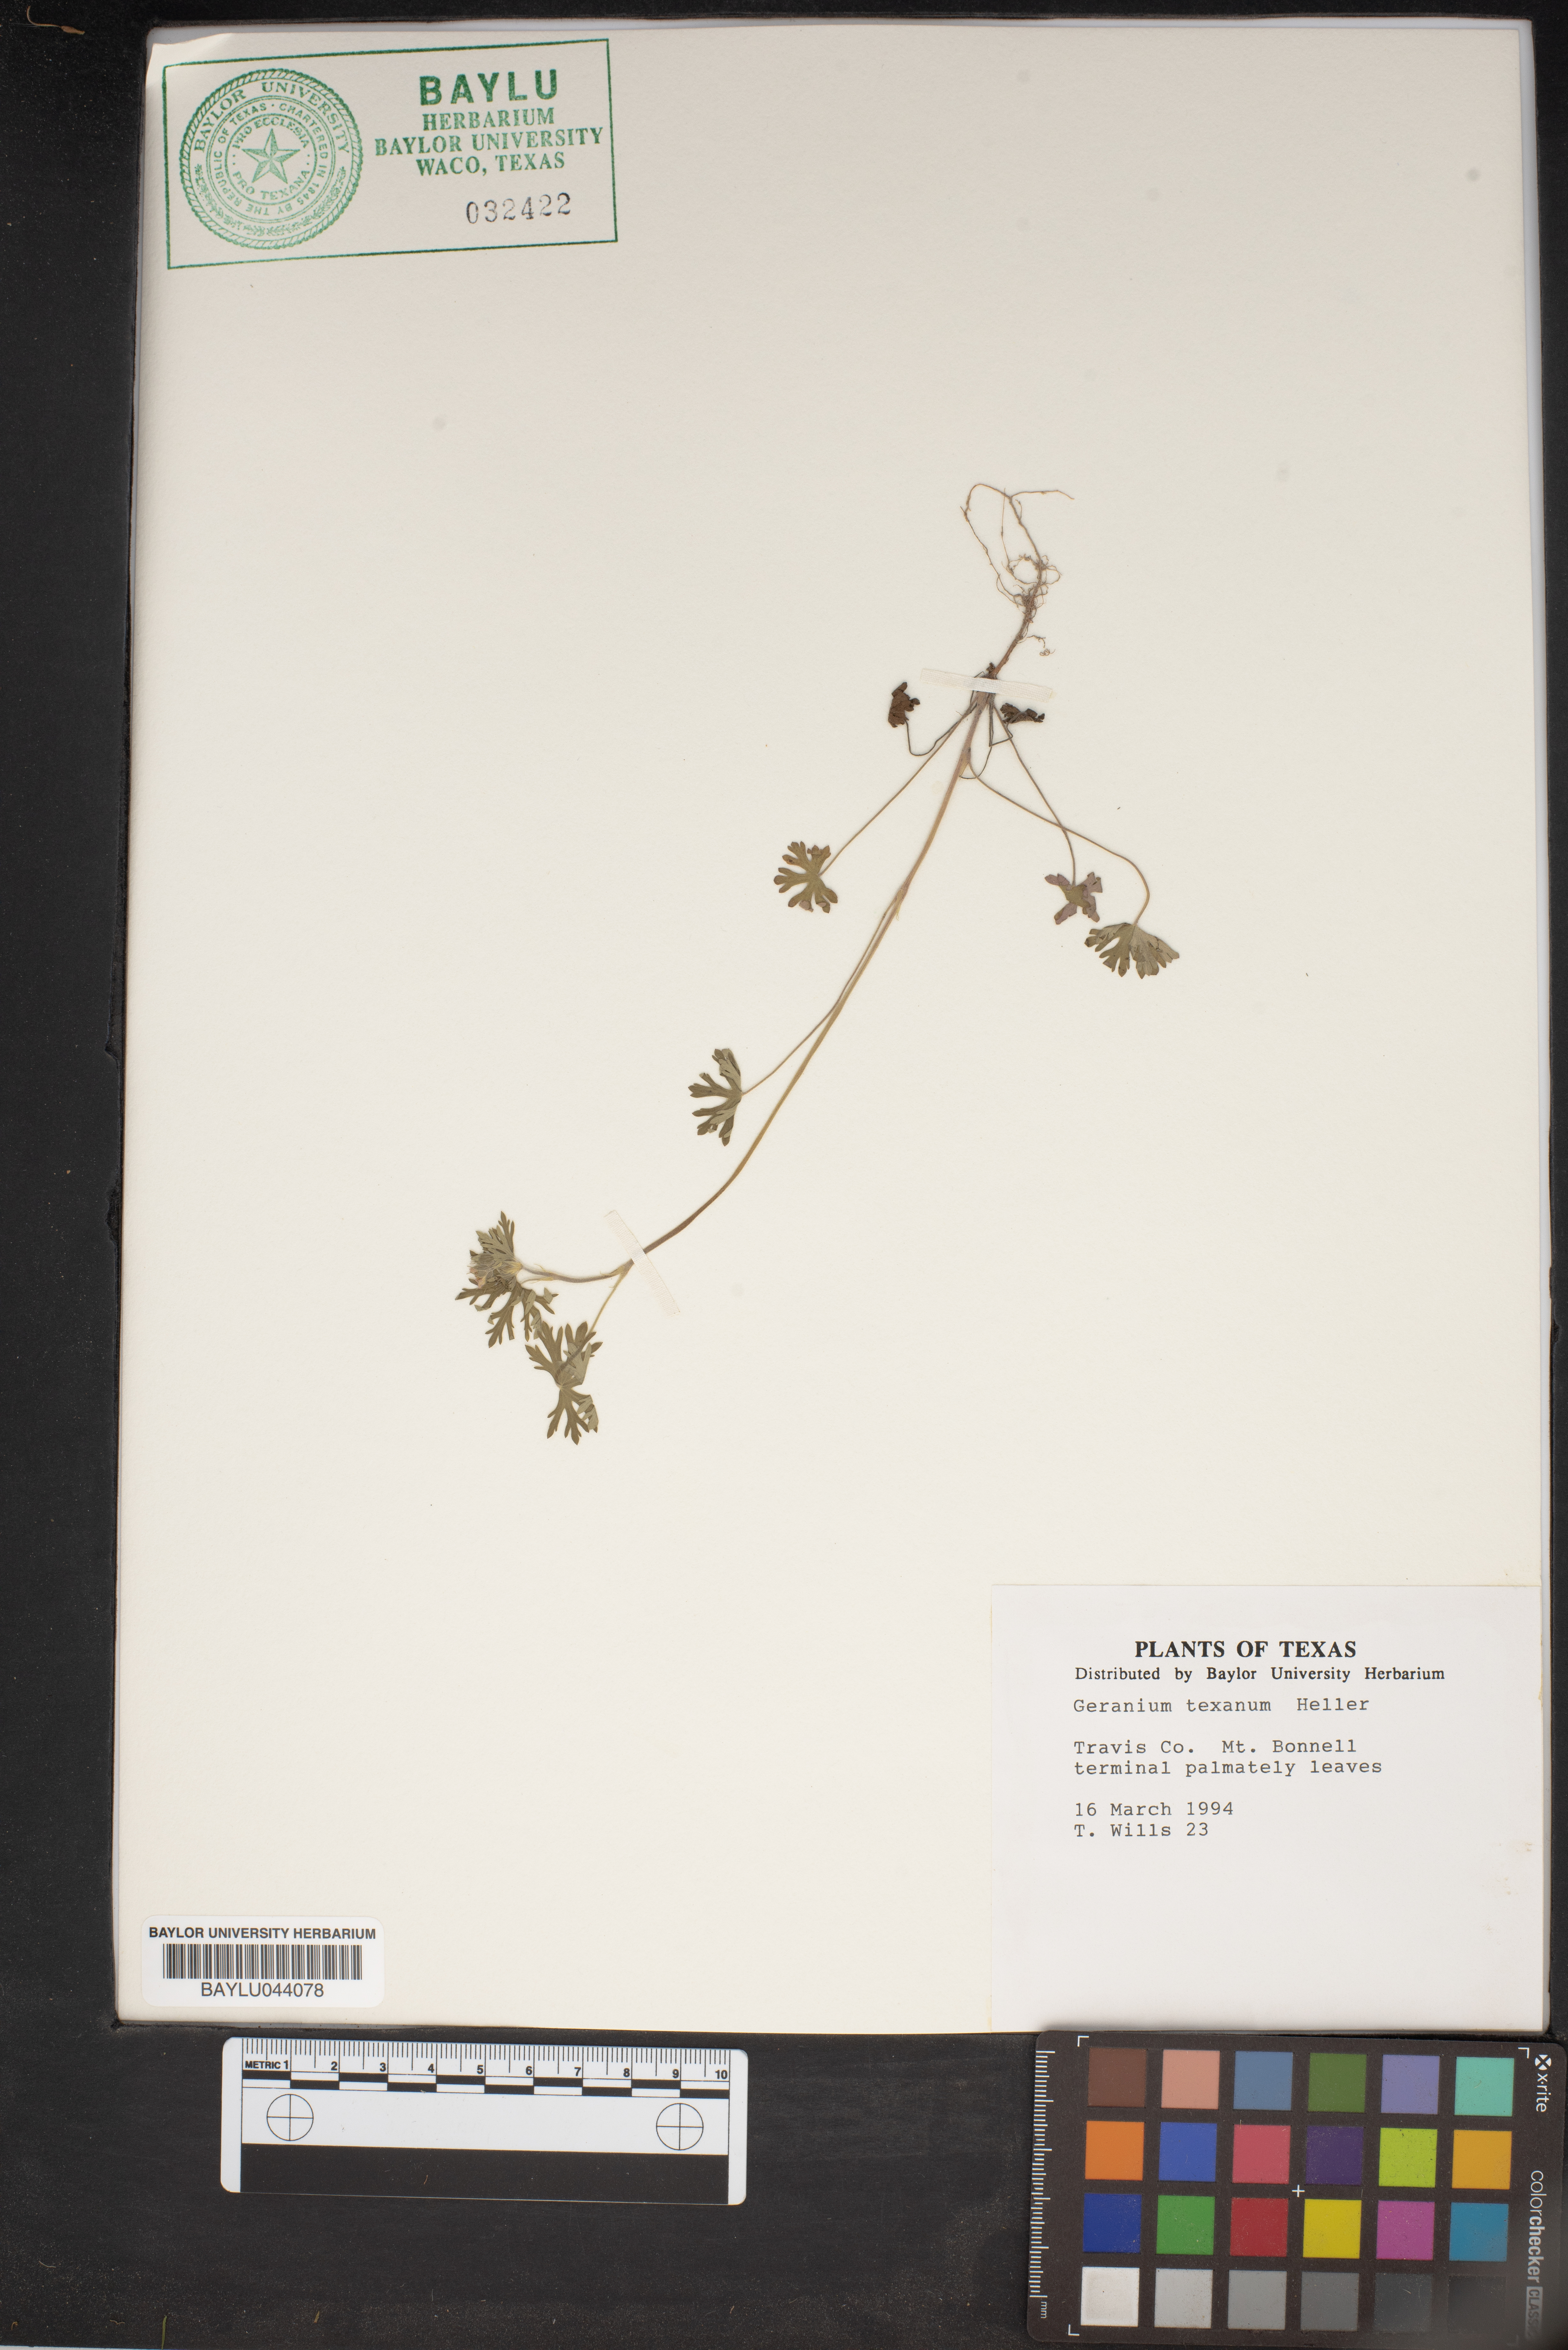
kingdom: Plantae
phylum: Tracheophyta
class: Magnoliopsida
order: Geraniales
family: Geraniaceae
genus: Geranium
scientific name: Geranium texanum
